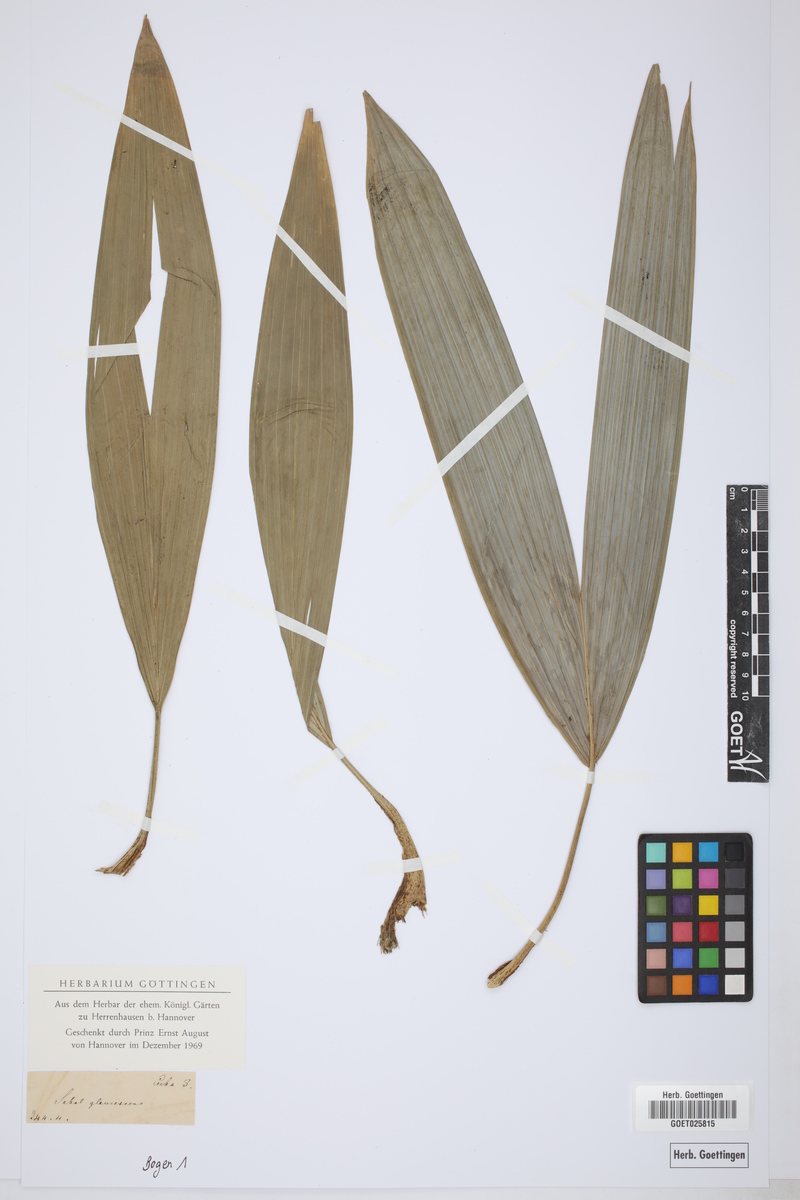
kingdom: Plantae
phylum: Tracheophyta
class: Liliopsida
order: Arecales
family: Arecaceae
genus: Sabal
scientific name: Sabal mauritiiformis
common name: Trinidad palm
